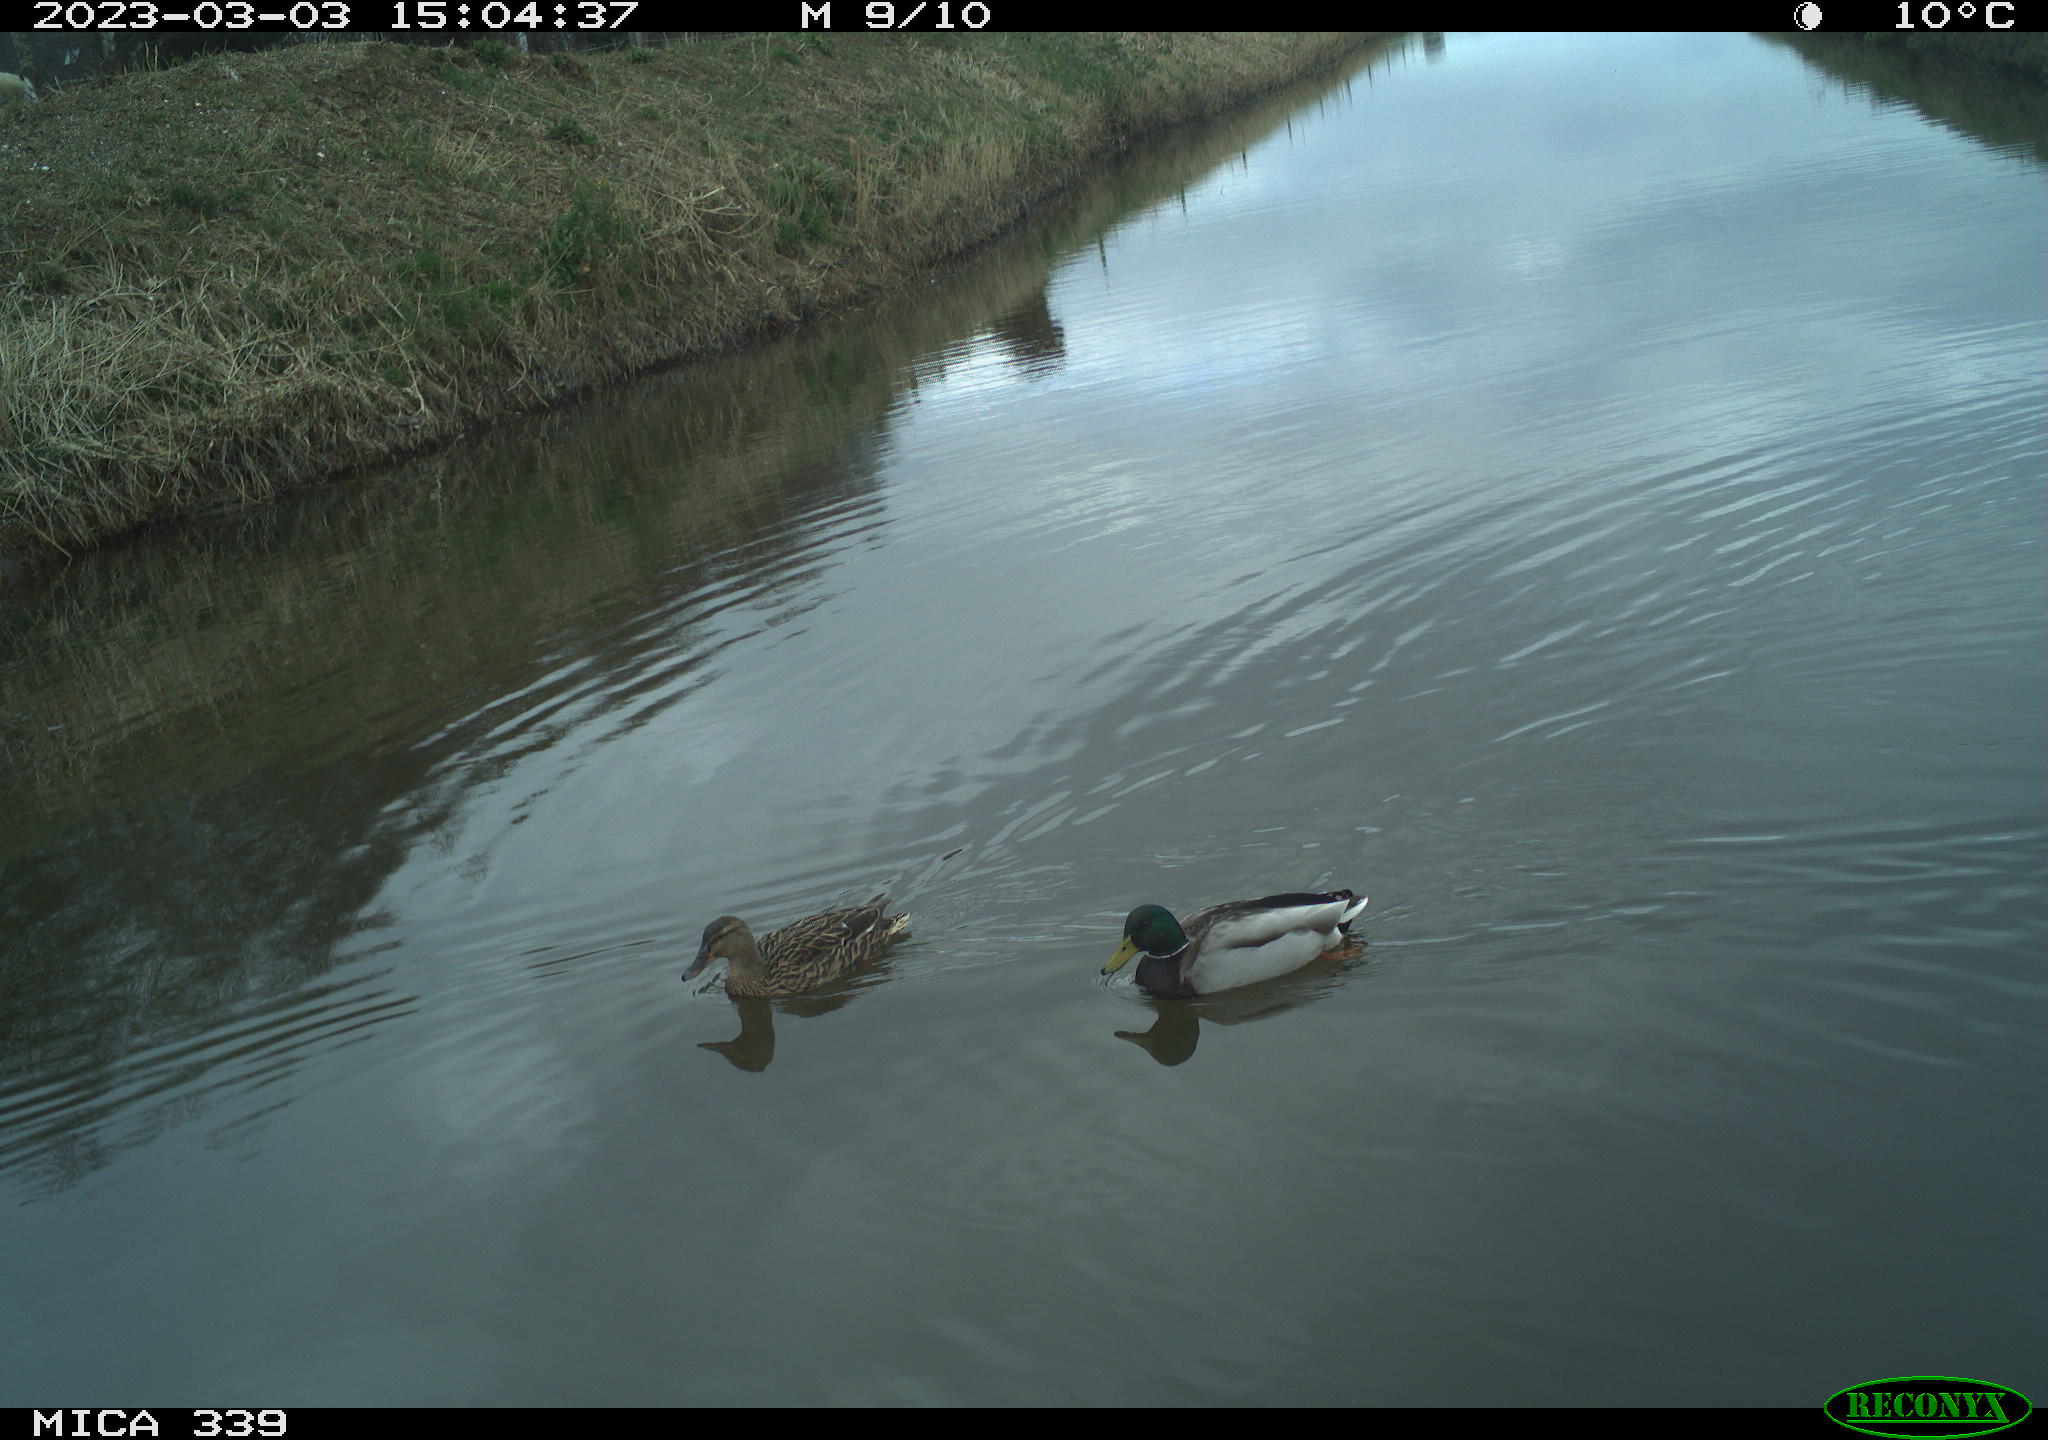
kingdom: Animalia
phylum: Chordata
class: Aves
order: Anseriformes
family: Anatidae
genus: Anas
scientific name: Anas
